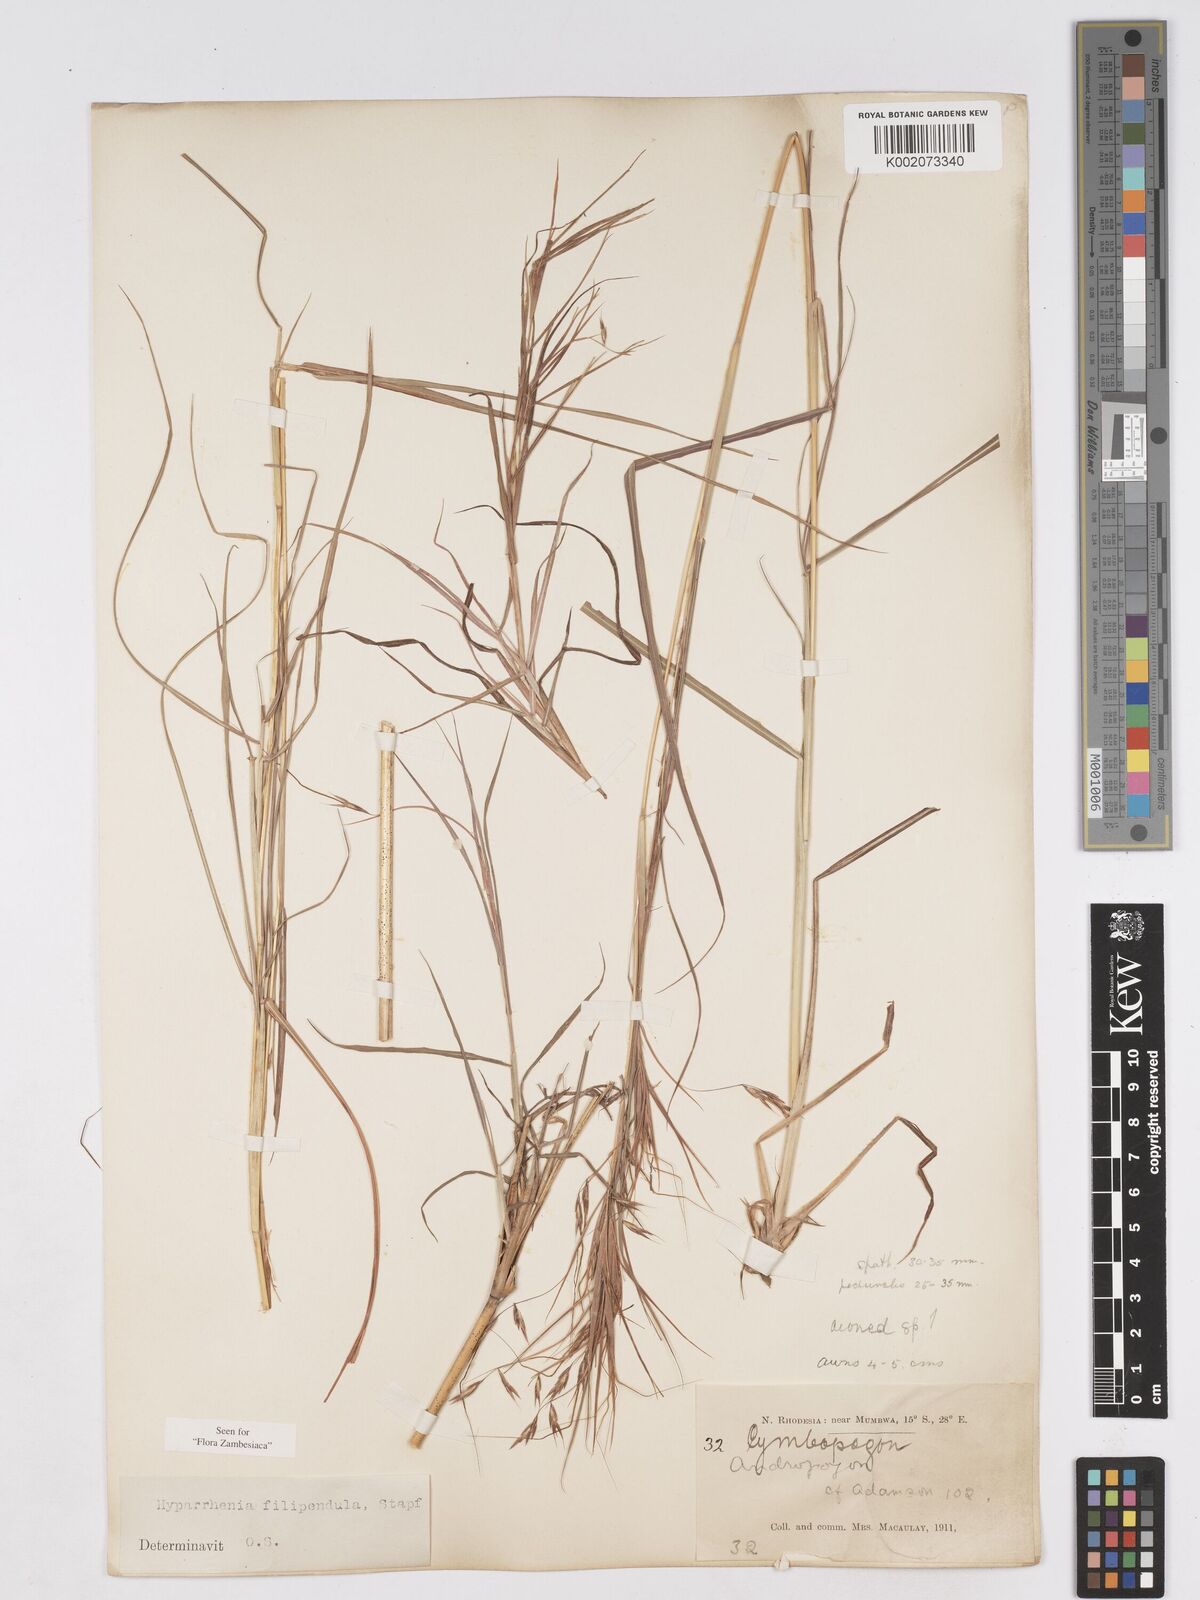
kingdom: Plantae
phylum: Tracheophyta
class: Liliopsida
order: Poales
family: Poaceae
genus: Hyparrhenia
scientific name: Hyparrhenia filipendula
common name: Tambookie grass
